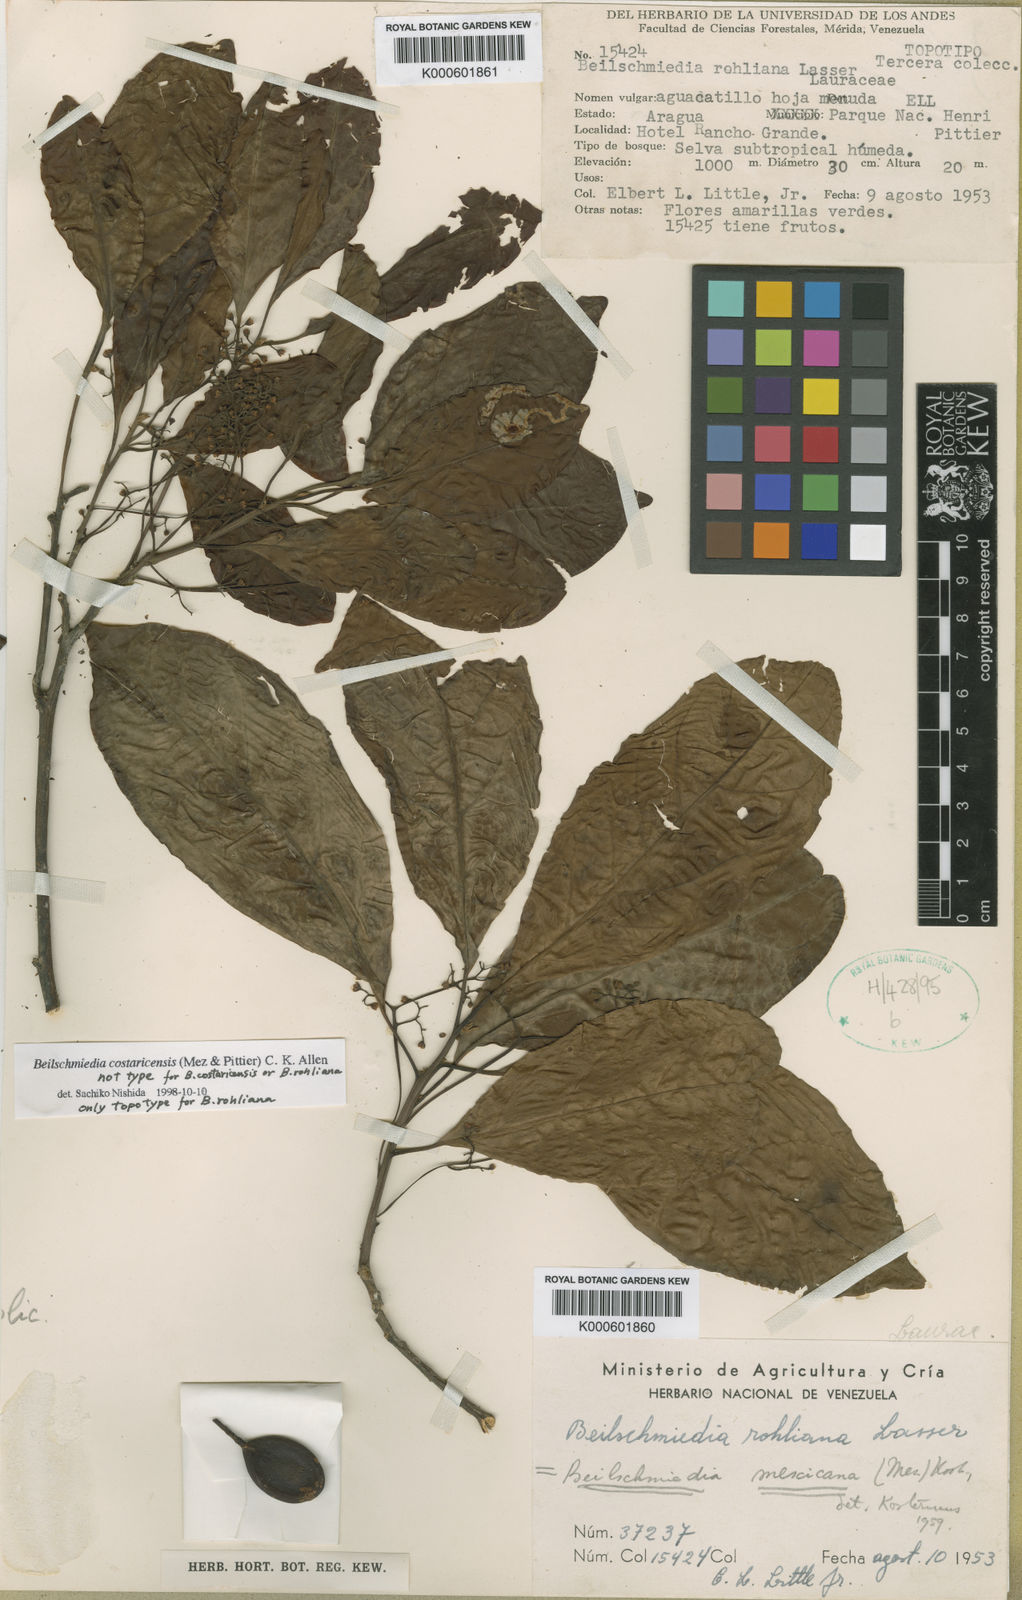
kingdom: Plantae
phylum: Tracheophyta
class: Magnoliopsida
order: Laurales
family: Lauraceae
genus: Beilschmiedia
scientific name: Beilschmiedia mexicana
